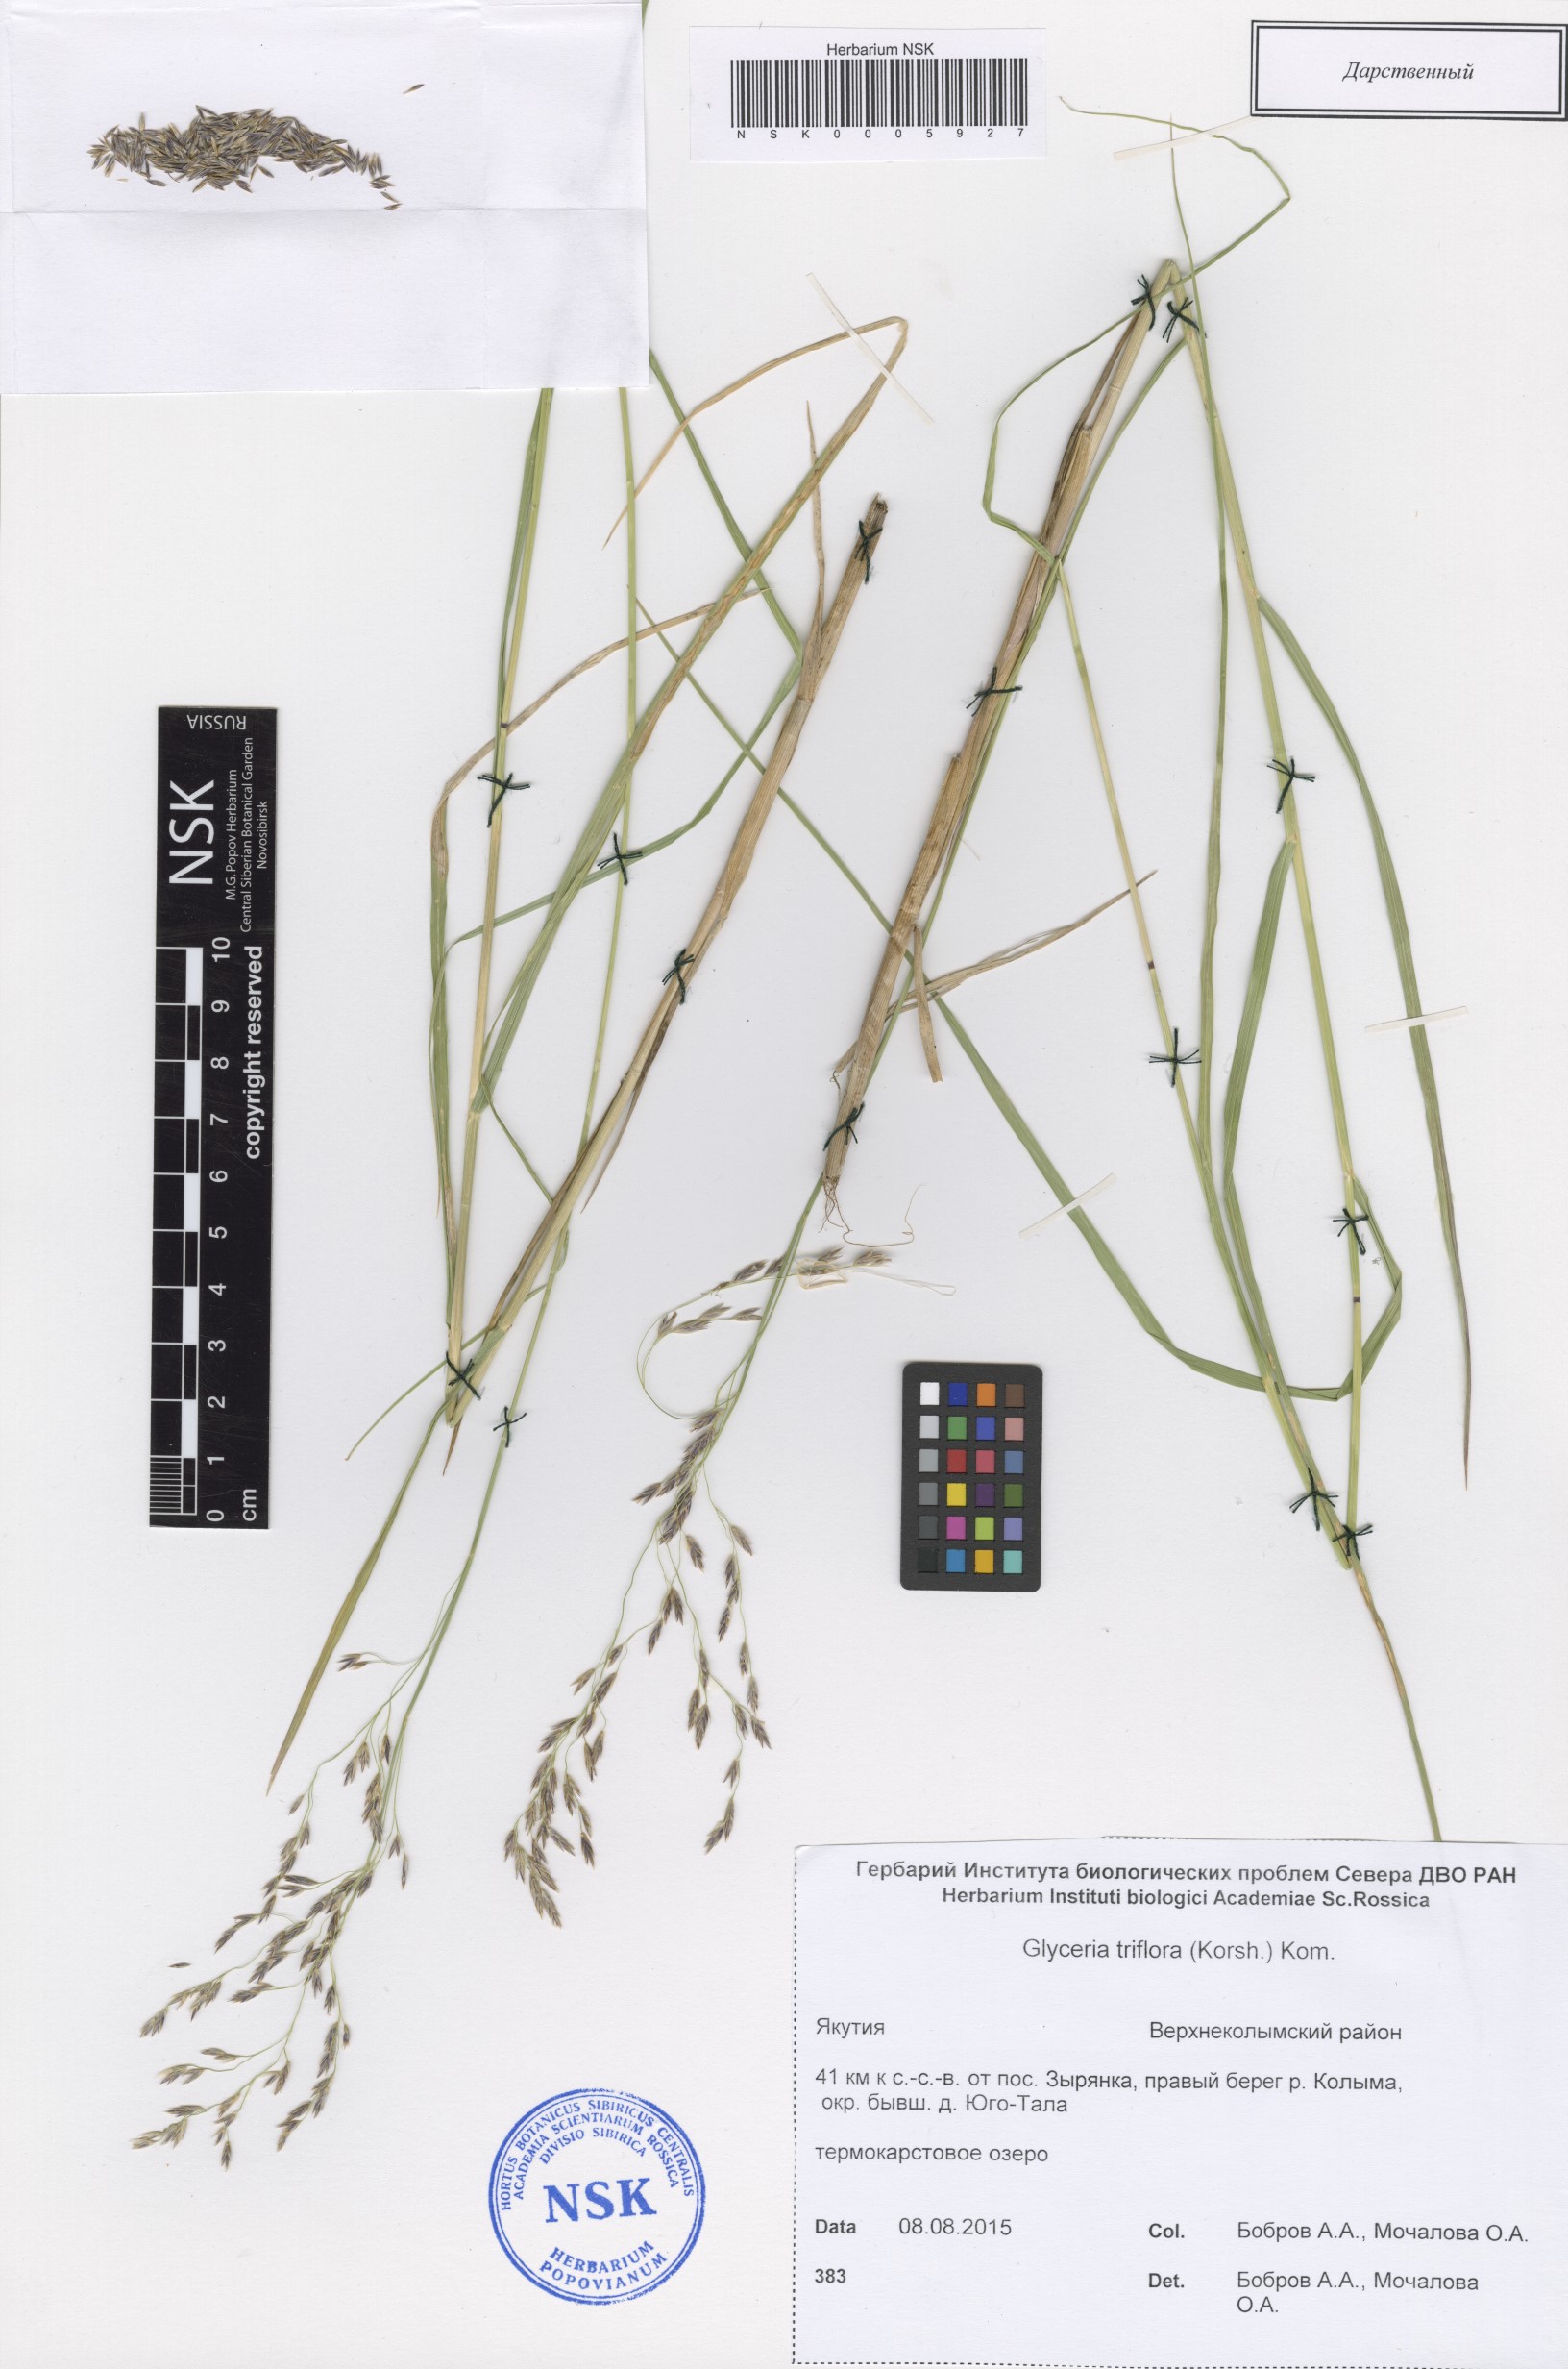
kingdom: Plantae
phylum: Tracheophyta
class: Liliopsida
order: Poales
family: Poaceae
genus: Glyceria
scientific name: Glyceria lithuanica
